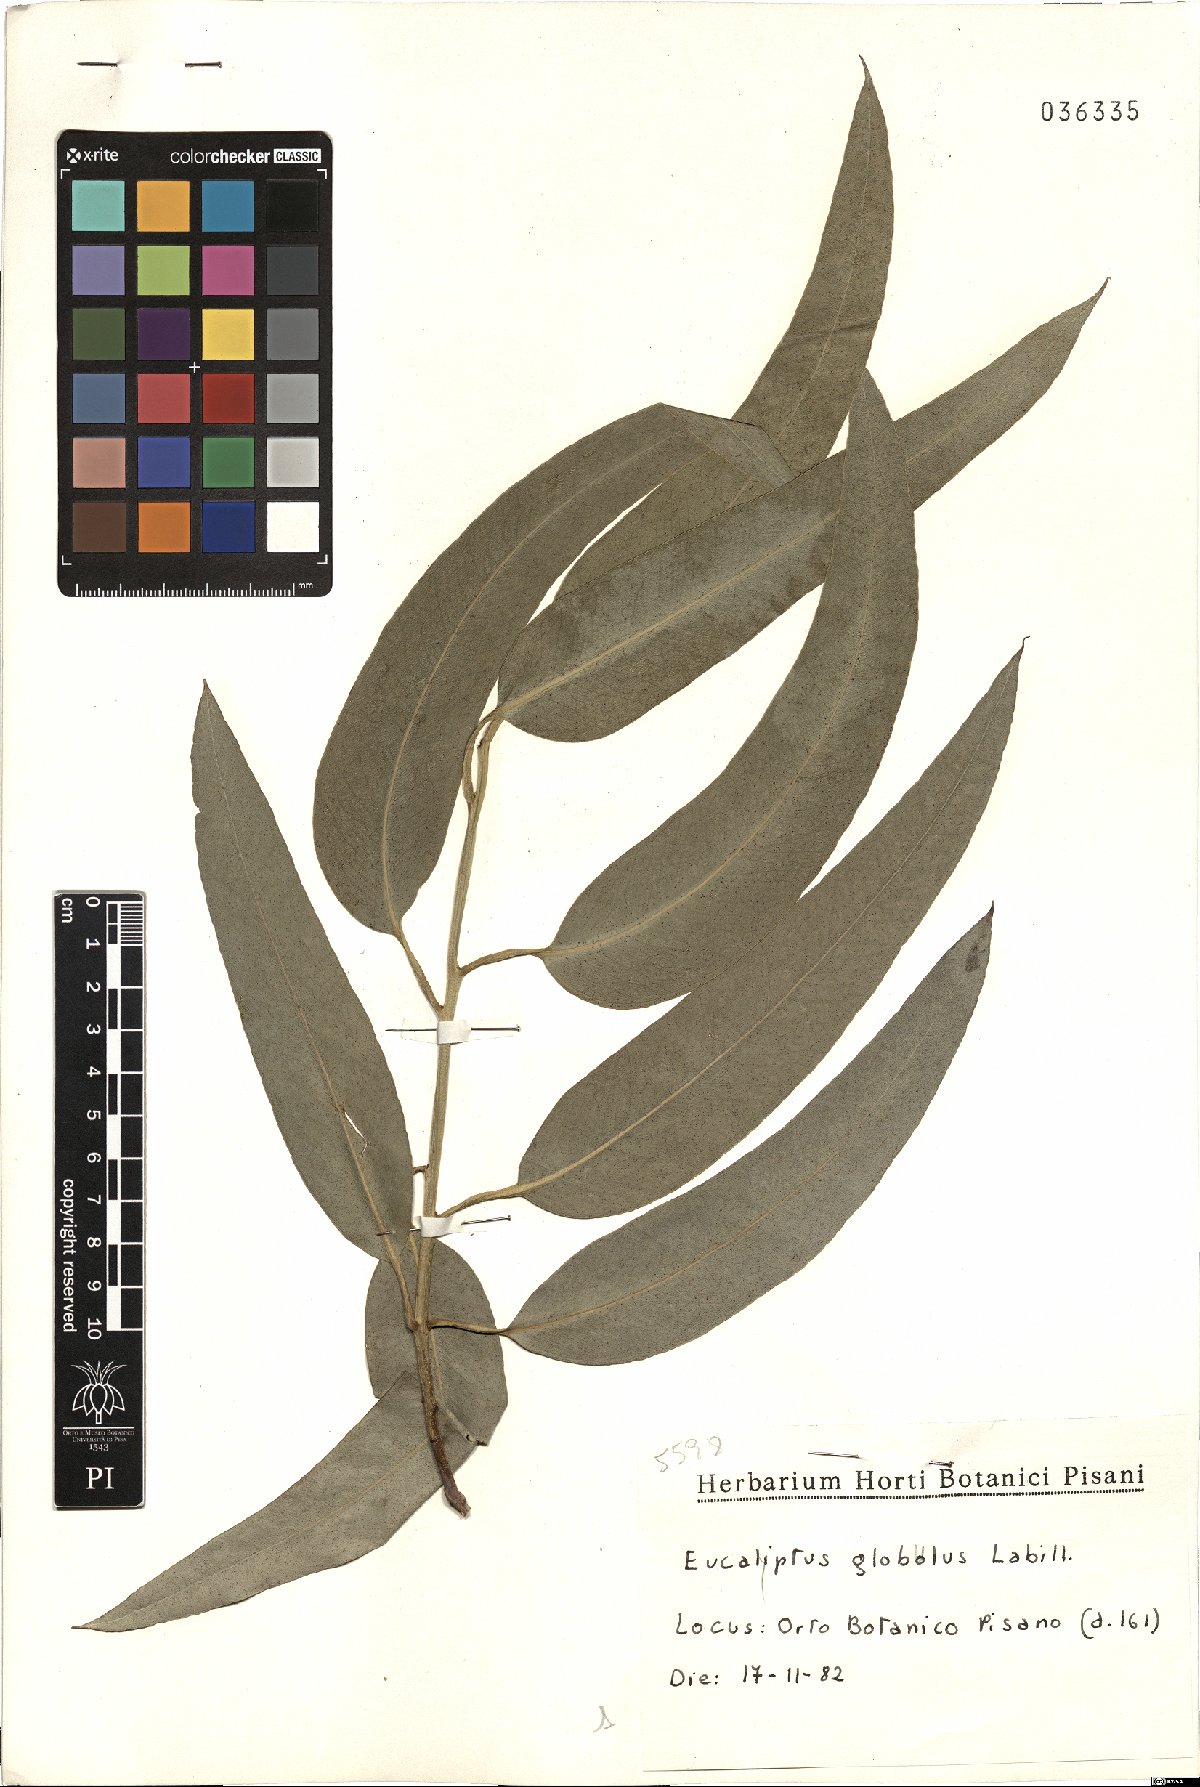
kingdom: Plantae
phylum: Tracheophyta
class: Magnoliopsida
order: Myrtales
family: Myrtaceae
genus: Eucalyptus
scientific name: Eucalyptus globulus
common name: Southern blue-gum
